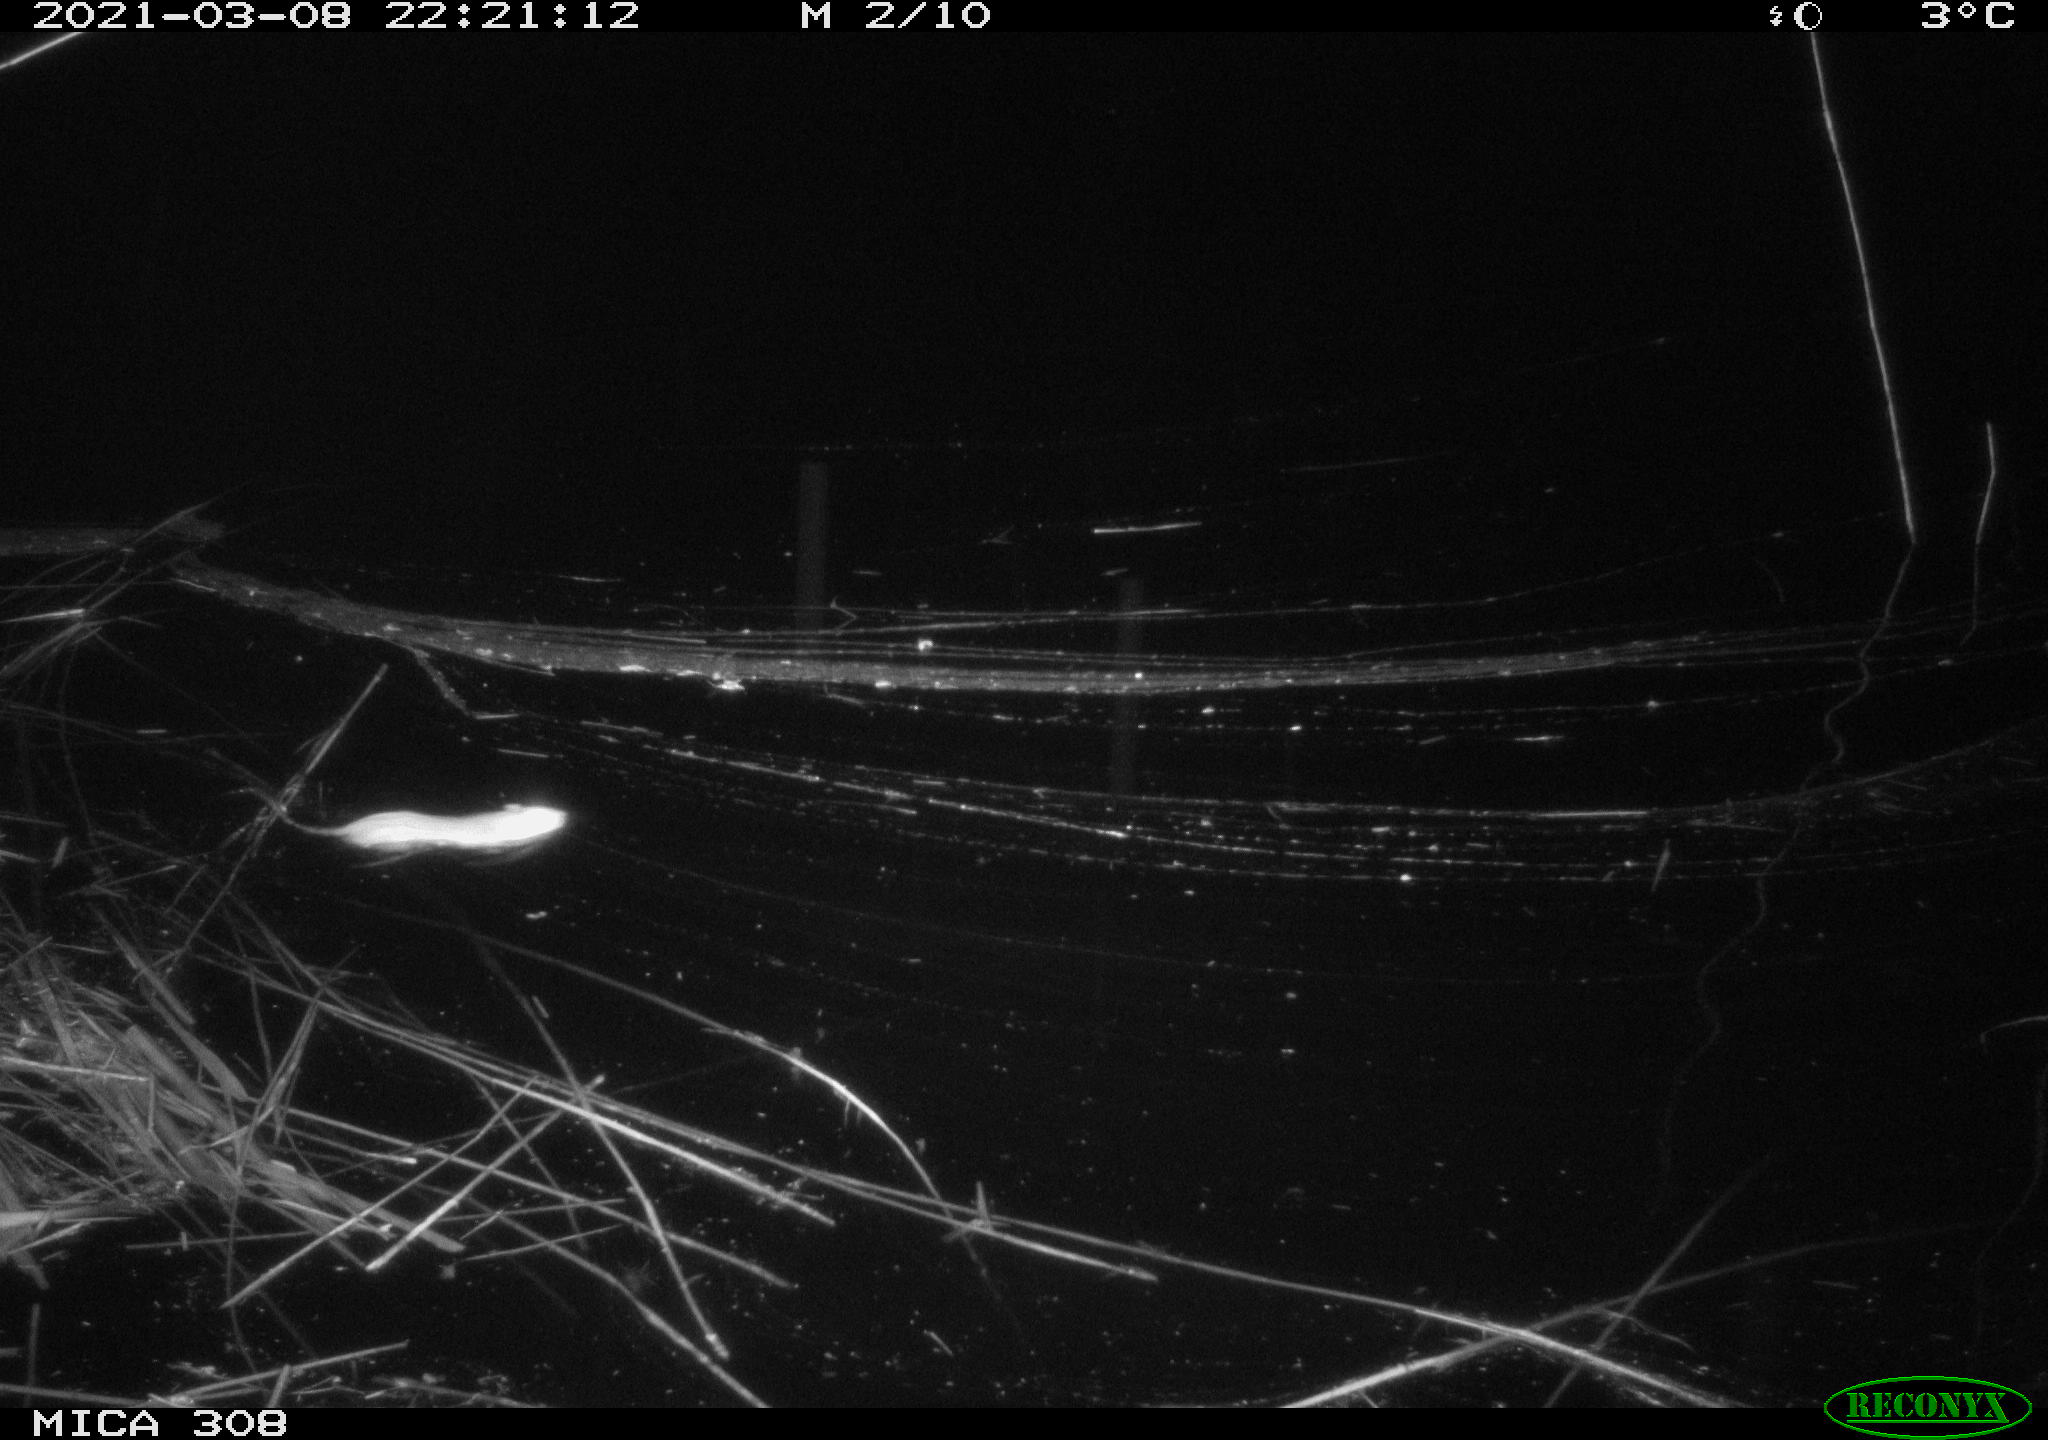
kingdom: Animalia
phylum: Chordata
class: Mammalia
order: Rodentia
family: Muridae
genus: Rattus
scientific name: Rattus norvegicus
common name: Brown rat
